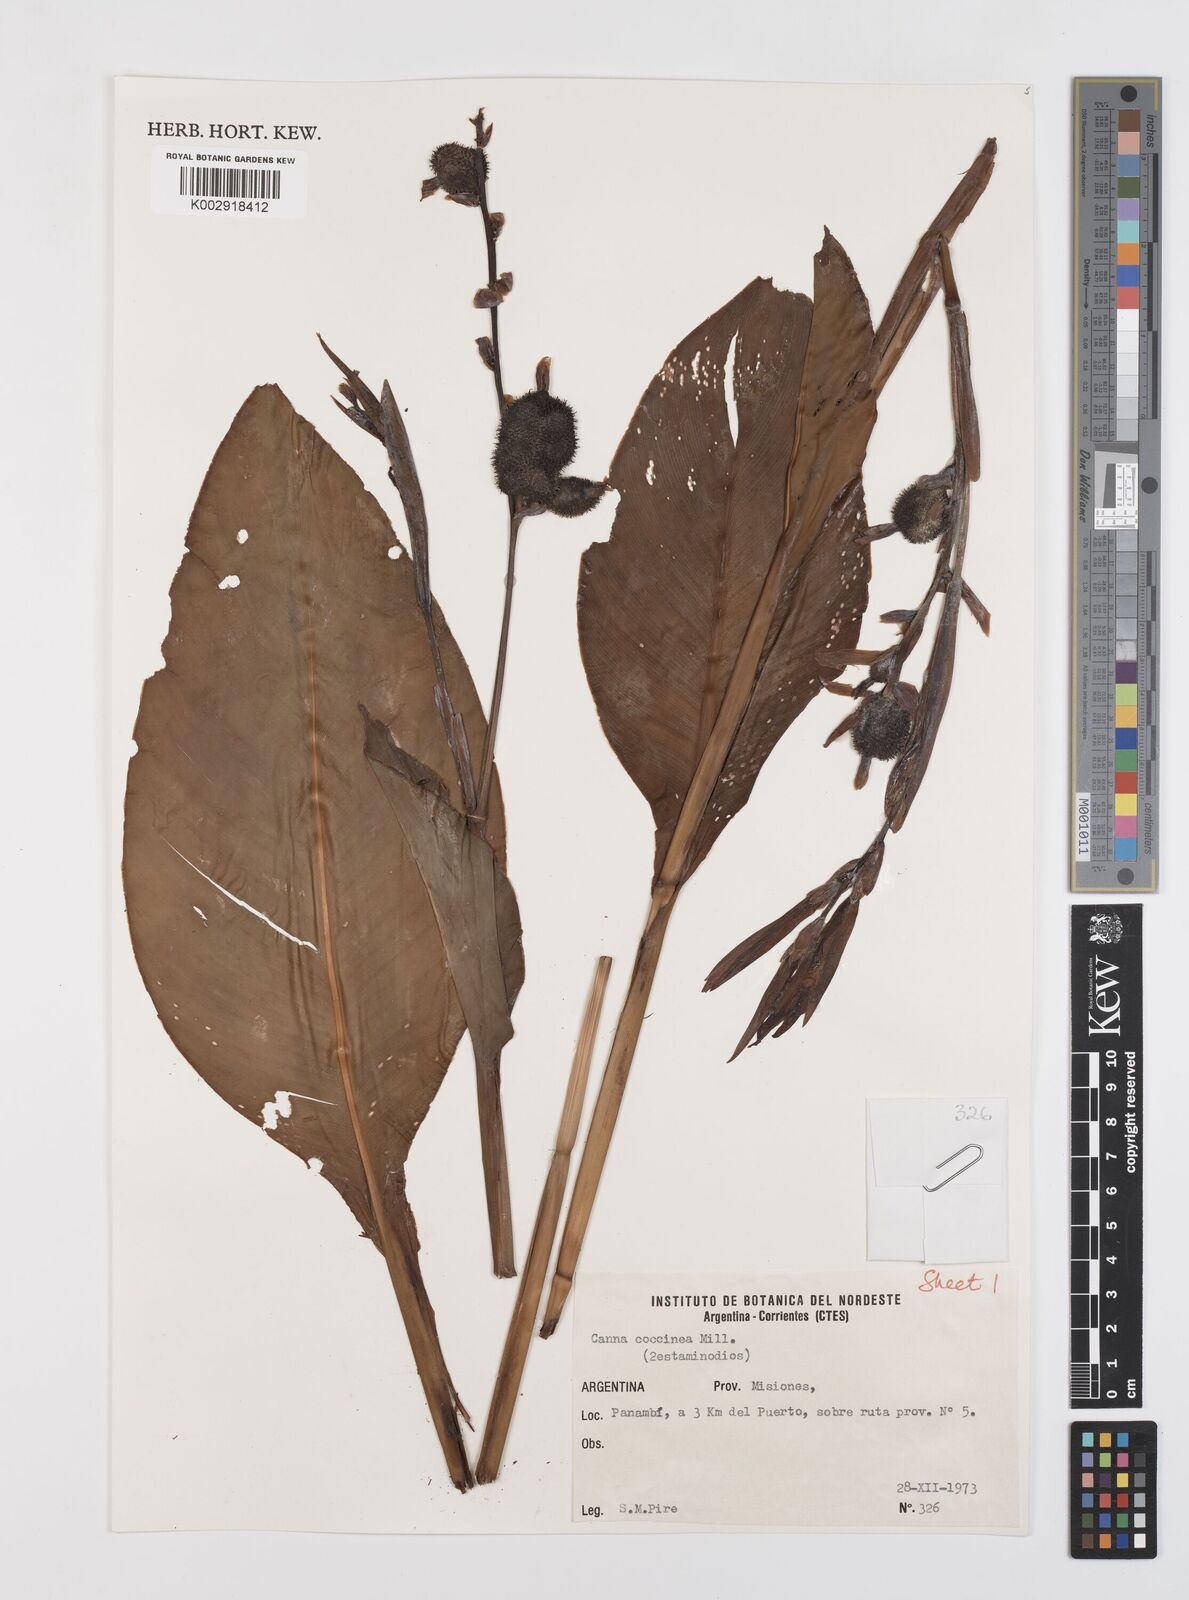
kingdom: Plantae
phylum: Tracheophyta
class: Liliopsida
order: Zingiberales
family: Cannaceae
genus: Canna
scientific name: Canna indica
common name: Indian shot
